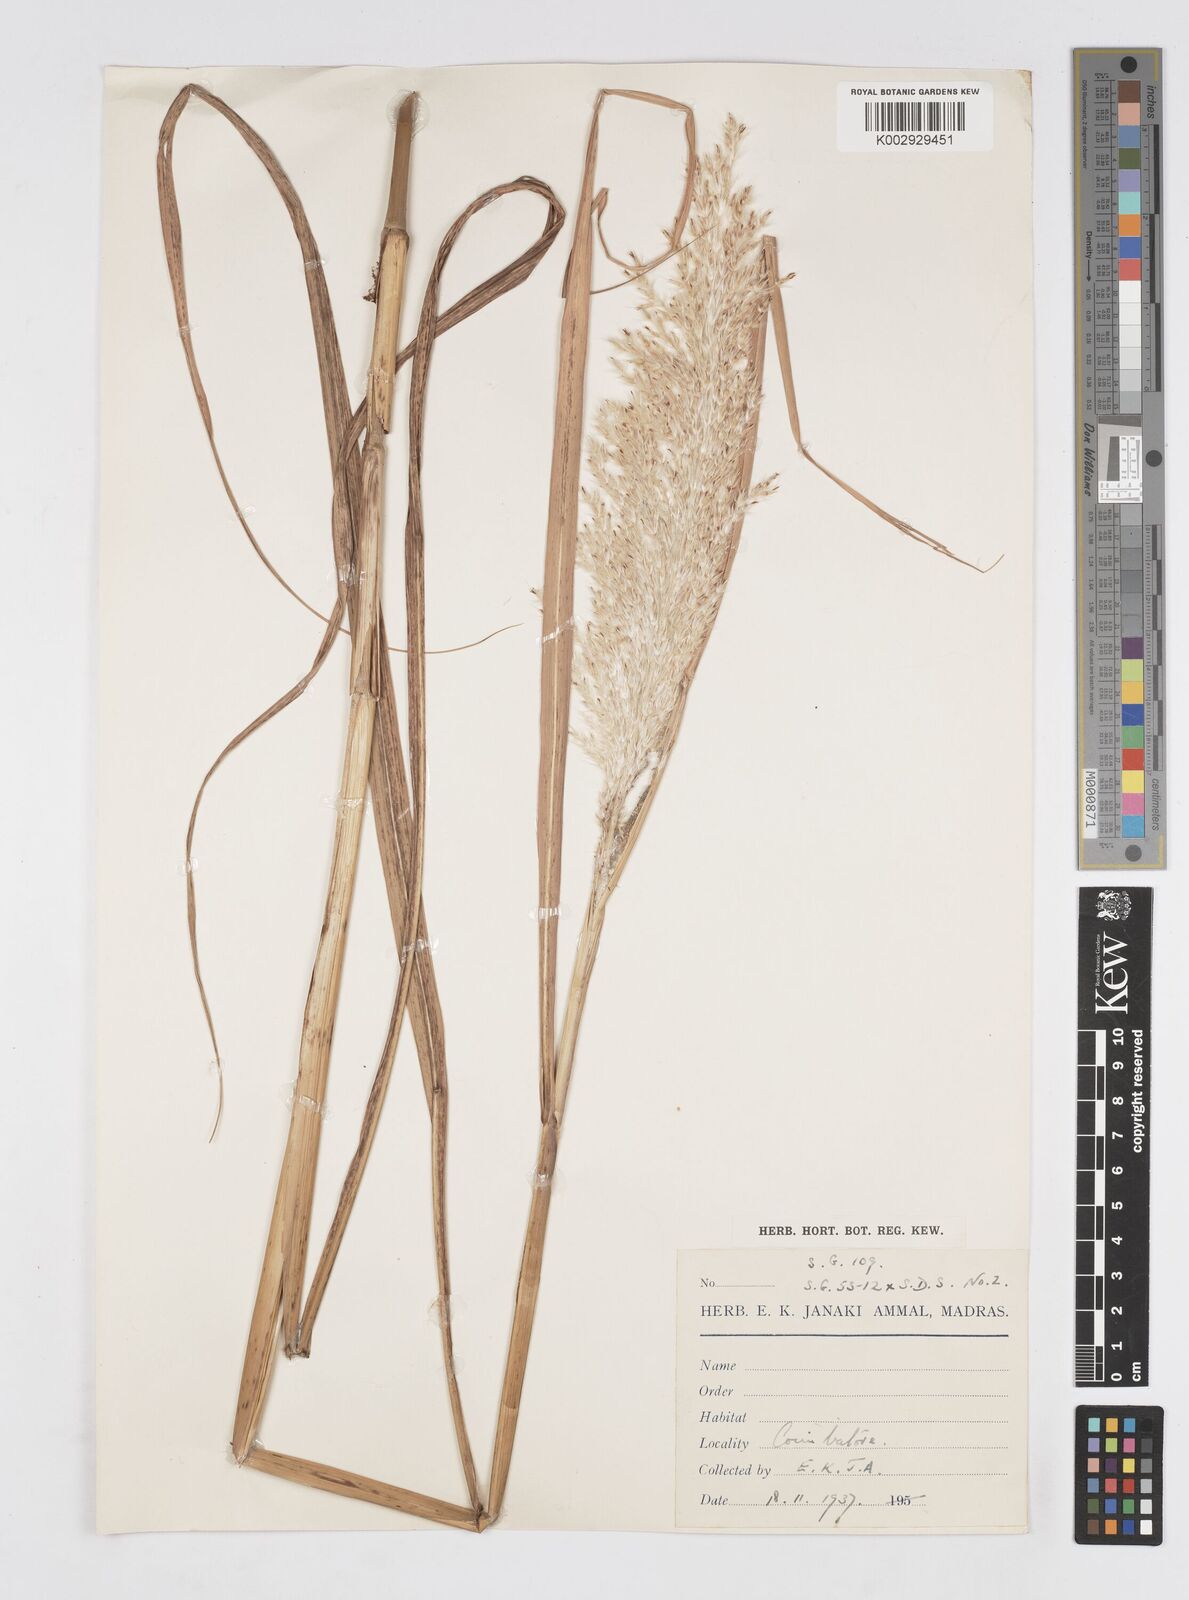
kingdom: Plantae
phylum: Tracheophyta
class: Liliopsida
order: Poales
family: Poaceae
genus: Saccharum
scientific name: Saccharum
